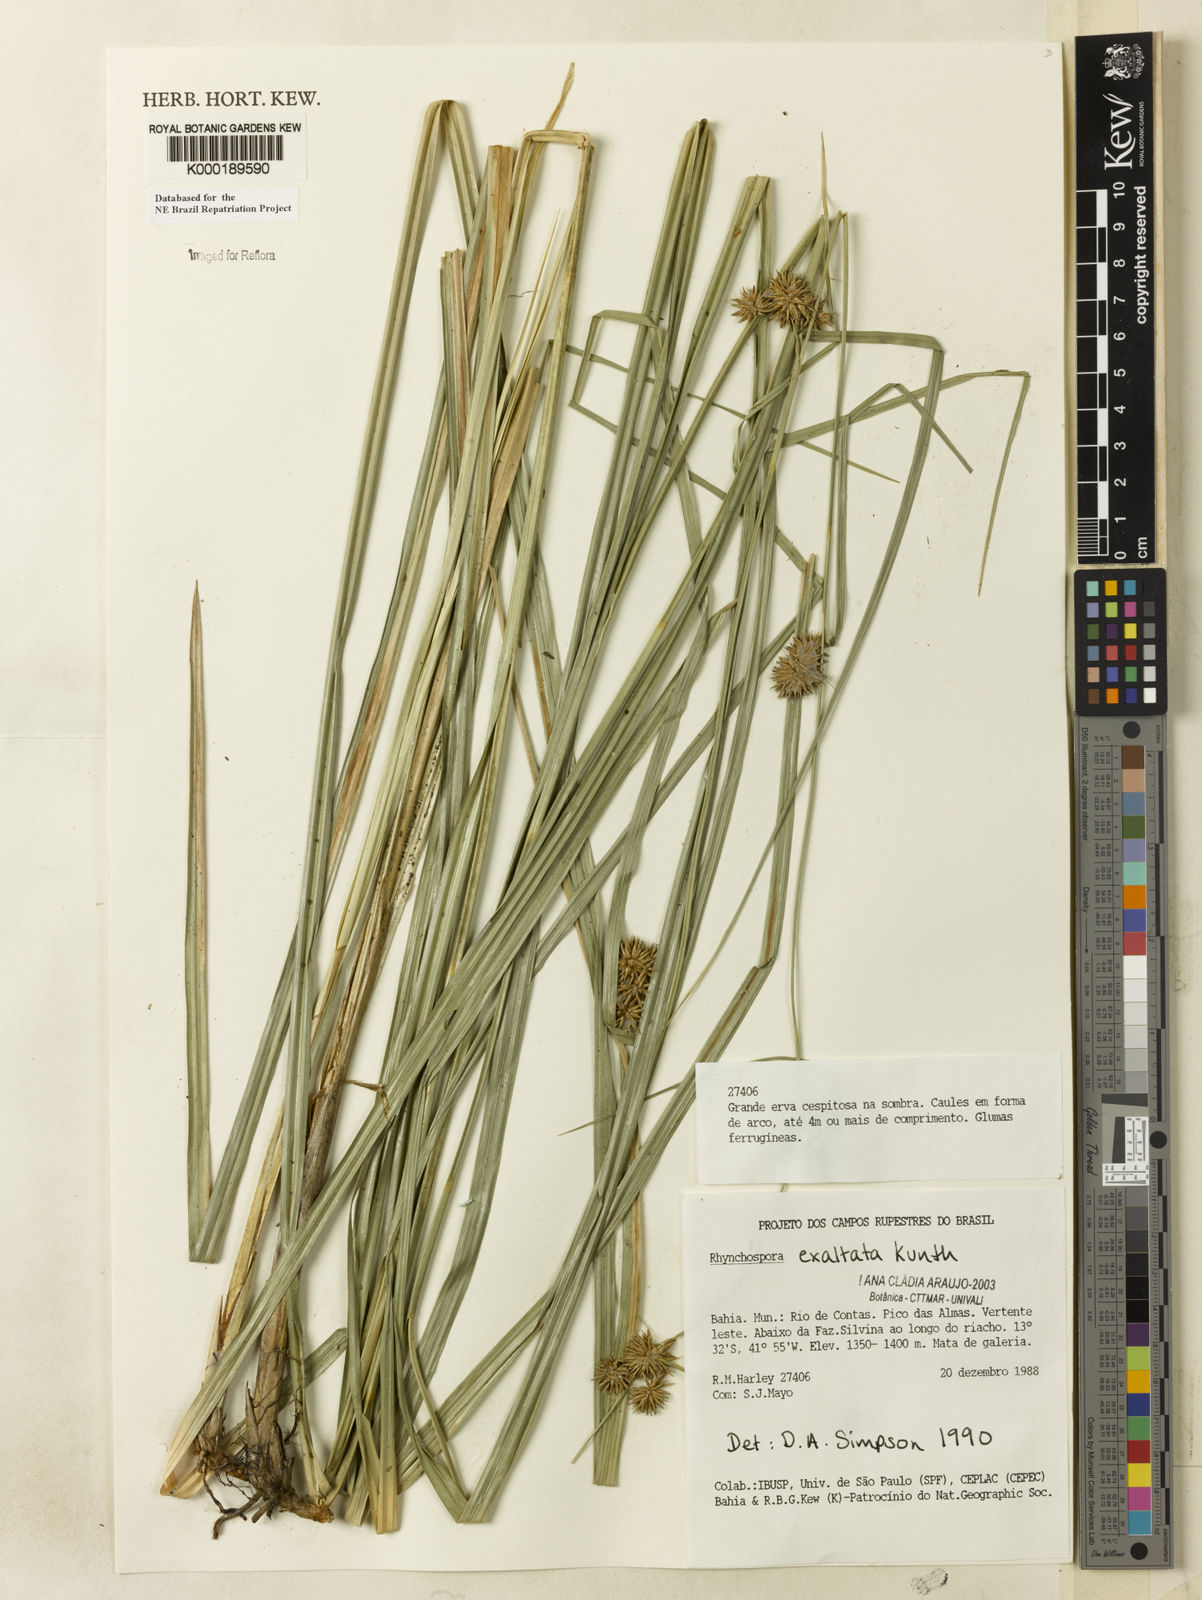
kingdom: Plantae
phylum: Tracheophyta
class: Liliopsida
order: Poales
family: Cyperaceae
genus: Rhynchospora
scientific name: Rhynchospora exaltata
